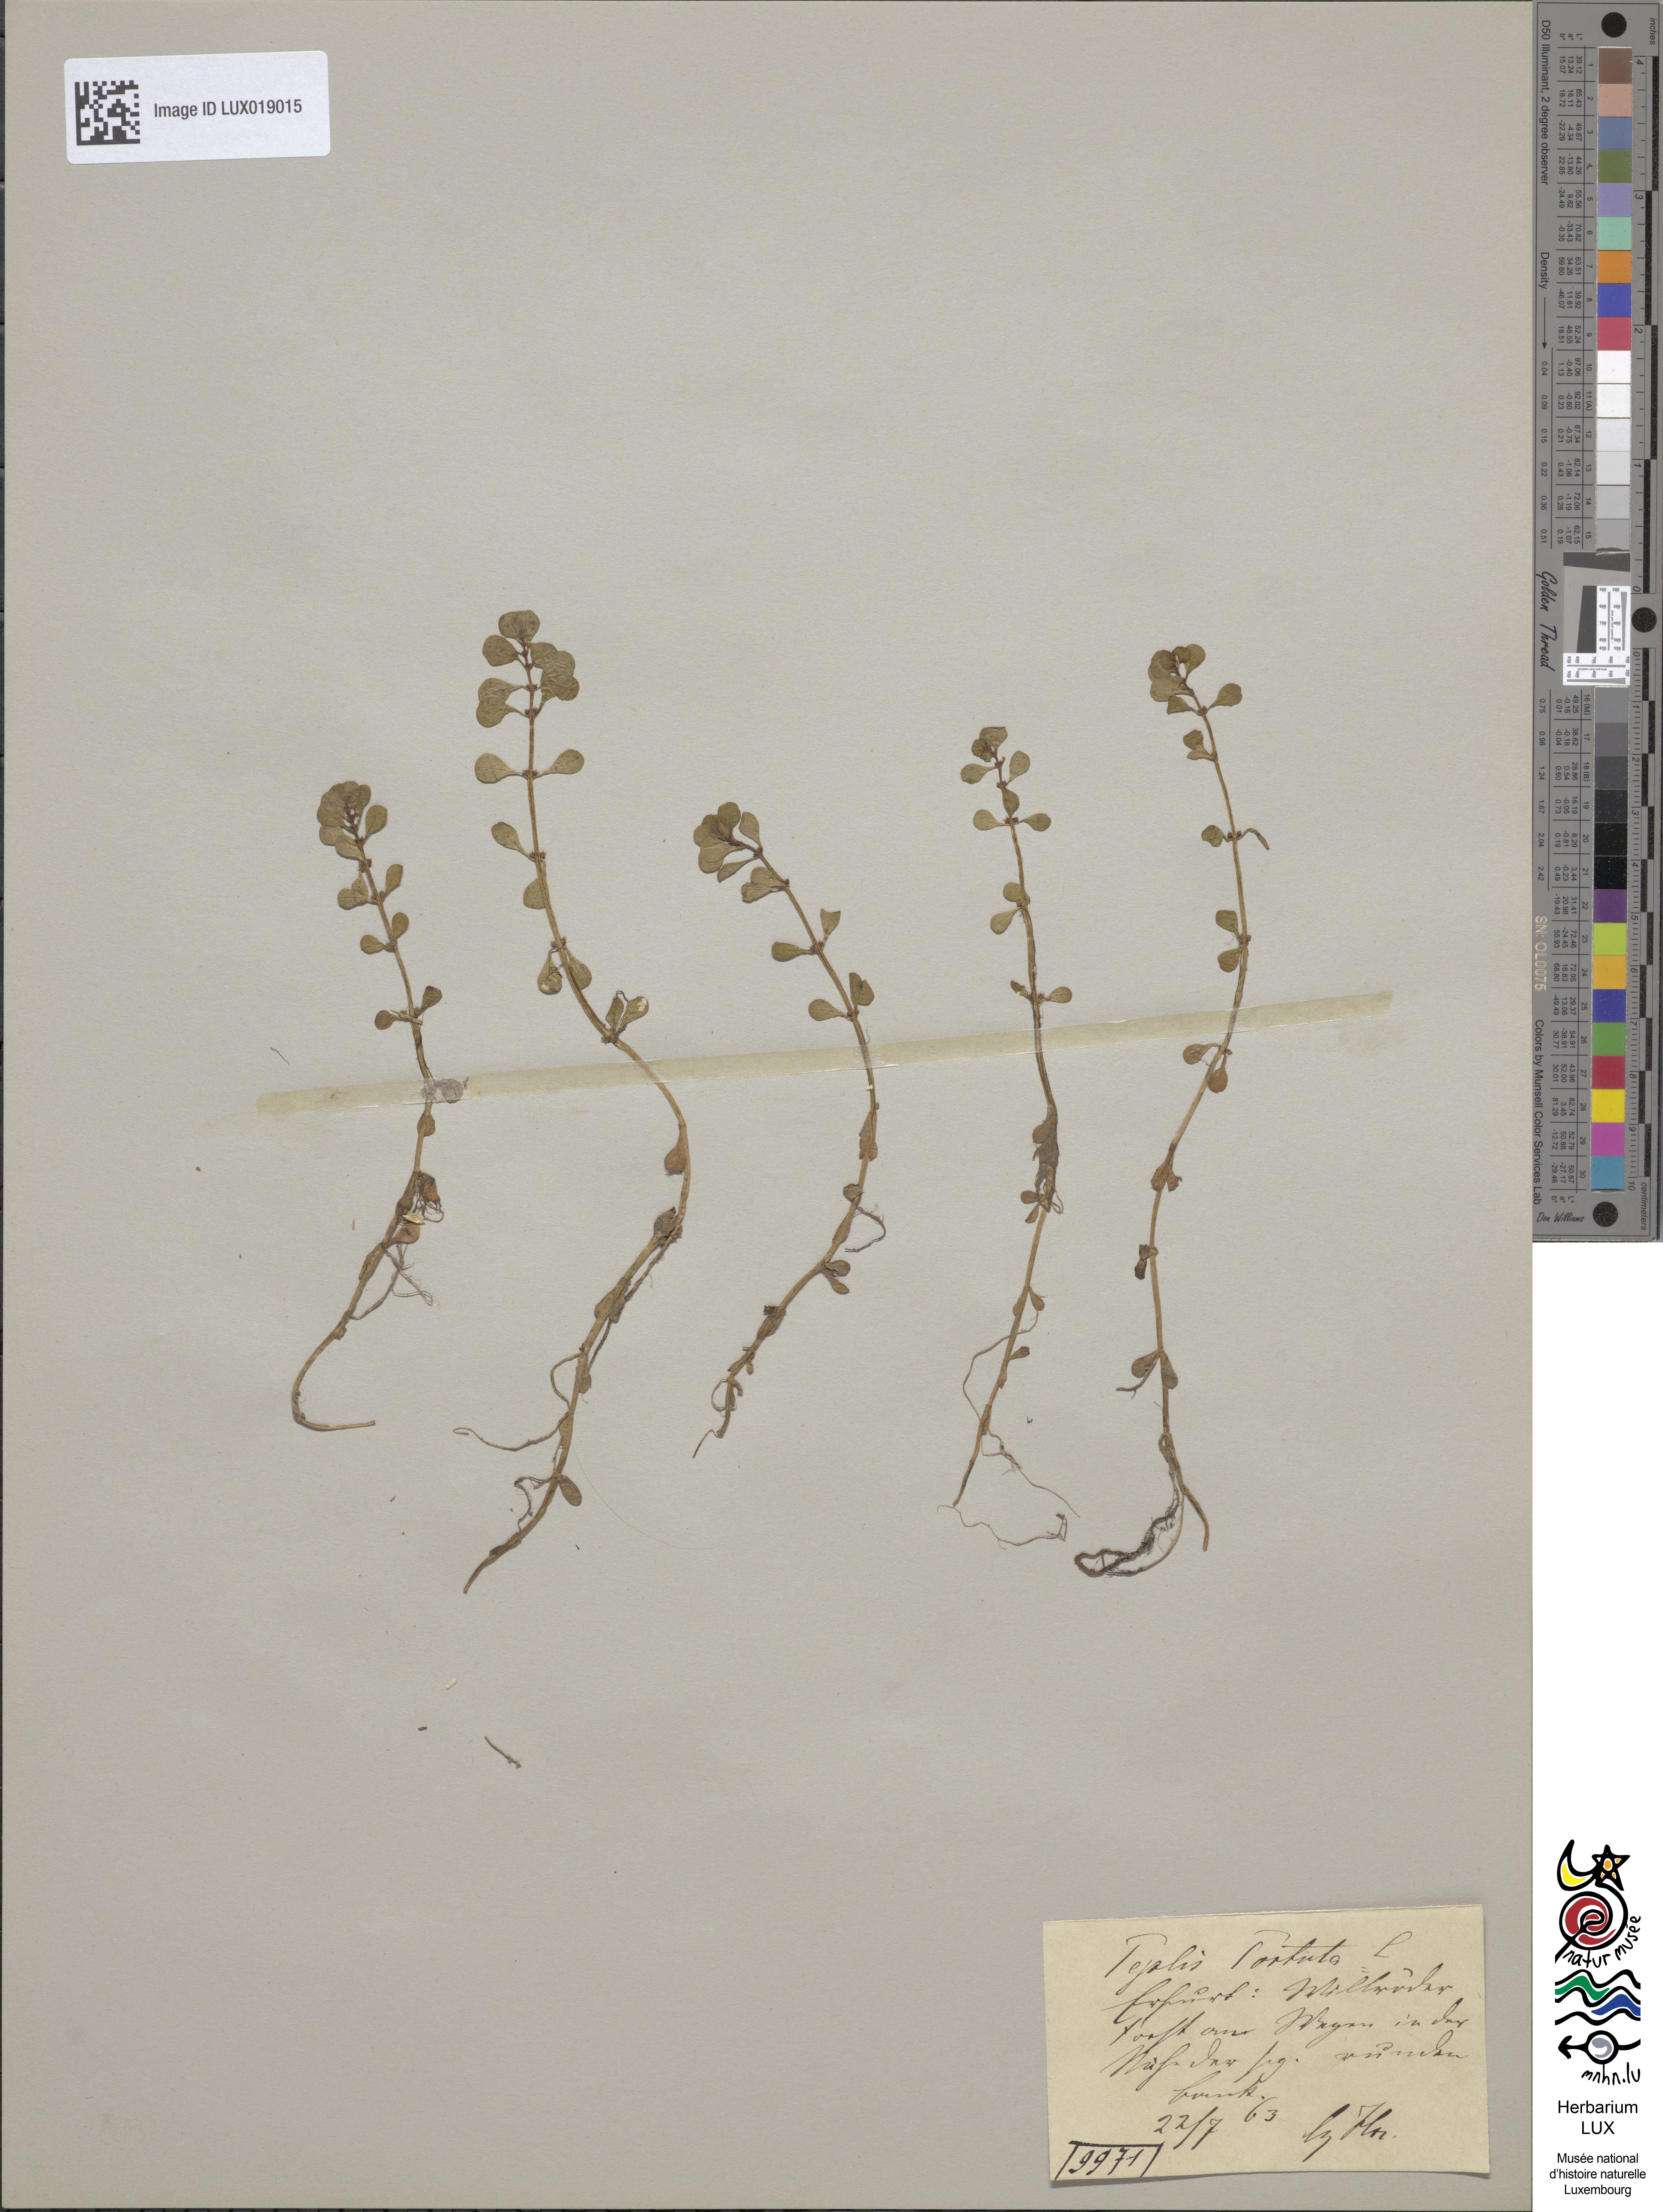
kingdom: Plantae
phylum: Tracheophyta
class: Magnoliopsida
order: Myrtales
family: Lythraceae
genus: Lythrum
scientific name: Lythrum portula
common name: Water purslane
